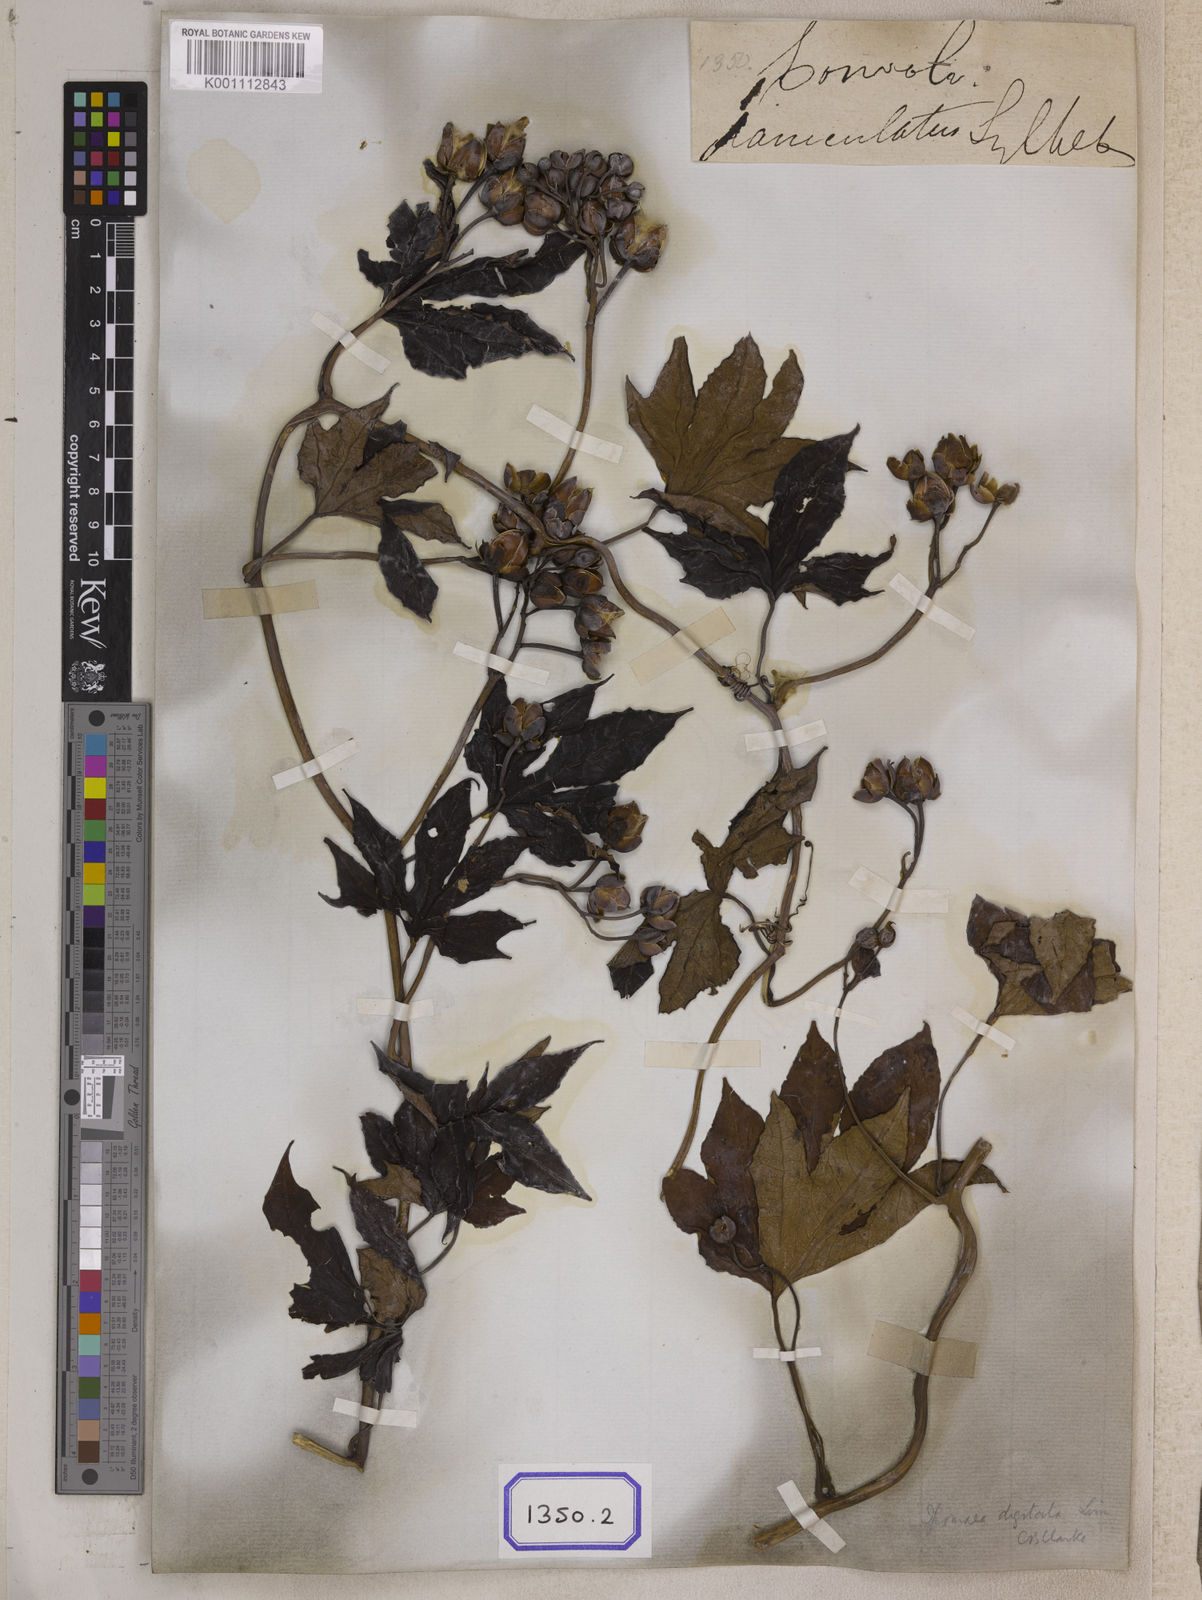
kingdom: Plantae
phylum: Tracheophyta
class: Magnoliopsida
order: Solanales
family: Convolvulaceae
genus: Ipomoea
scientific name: Ipomoea mauritiana
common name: Mauritanian convolvulus
